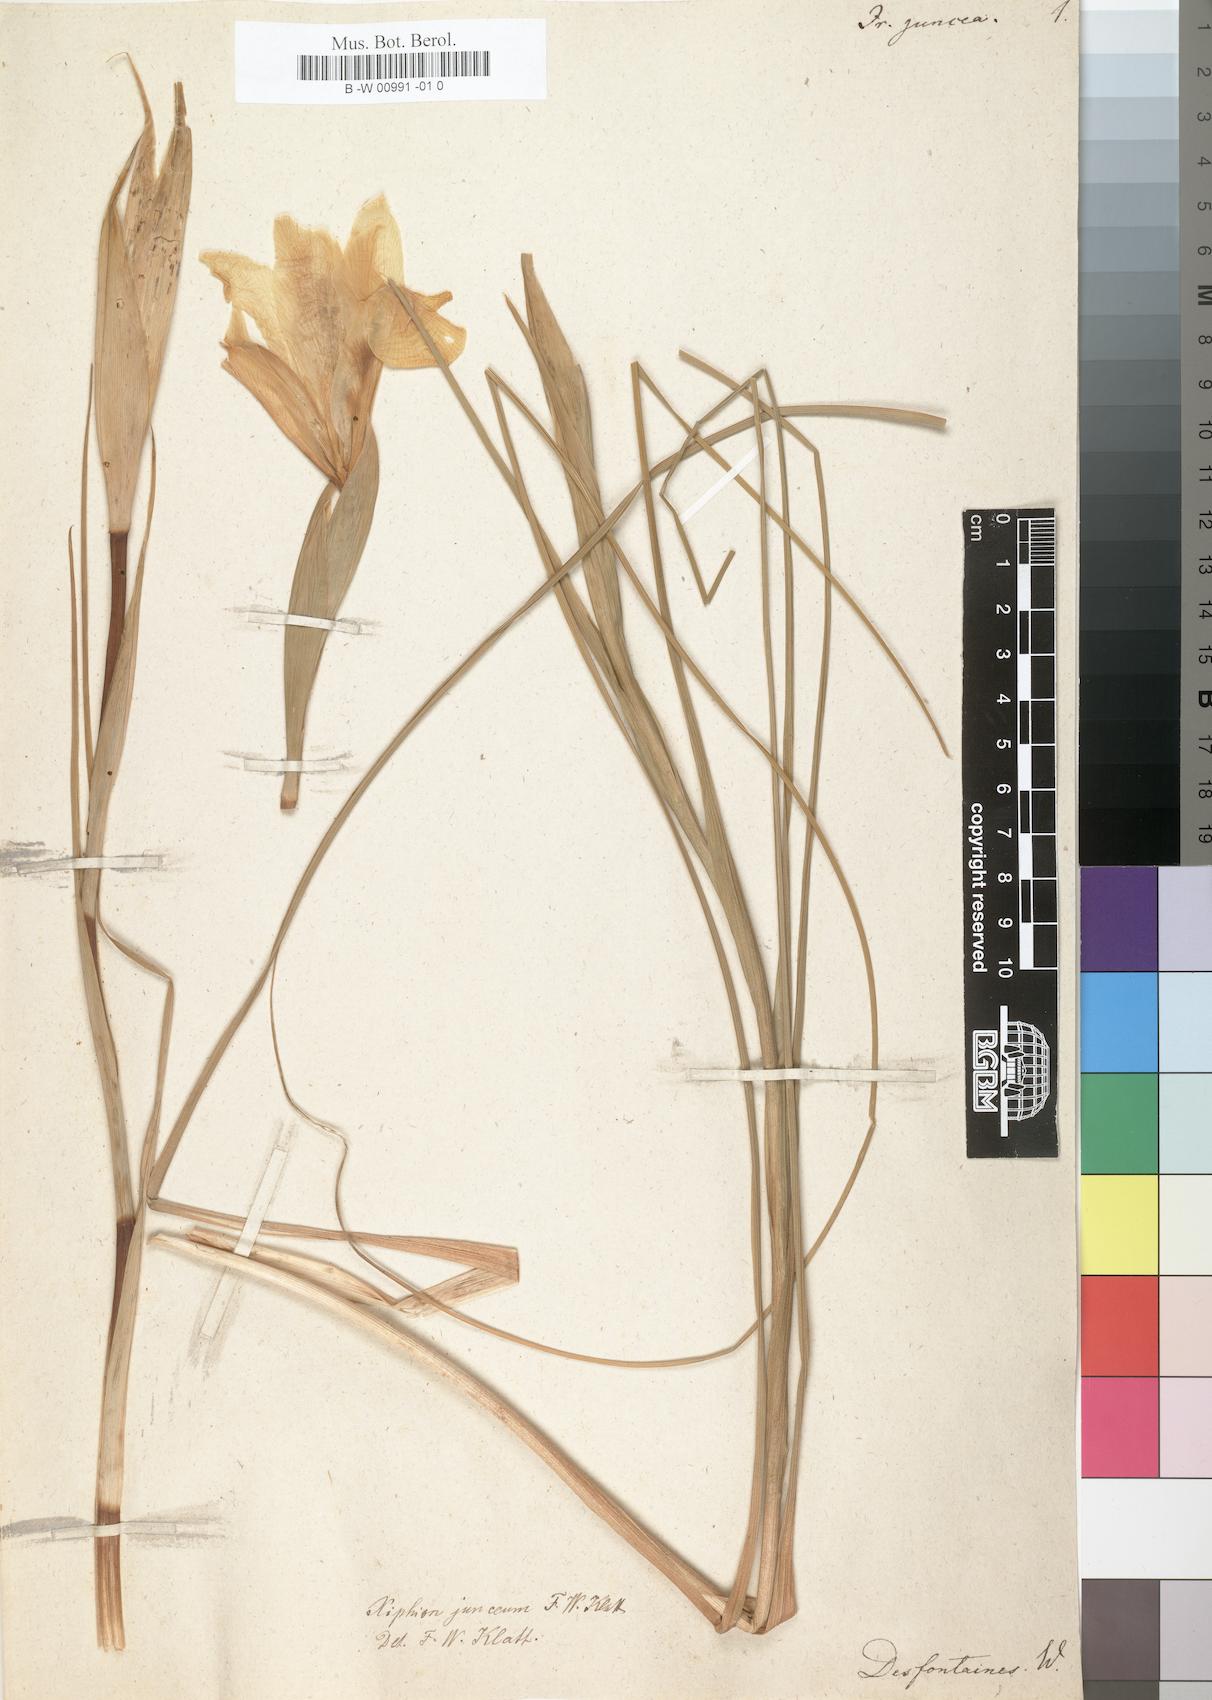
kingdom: Plantae
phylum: Tracheophyta
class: Liliopsida
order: Asparagales
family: Iridaceae
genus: Iris
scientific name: Iris juncea
